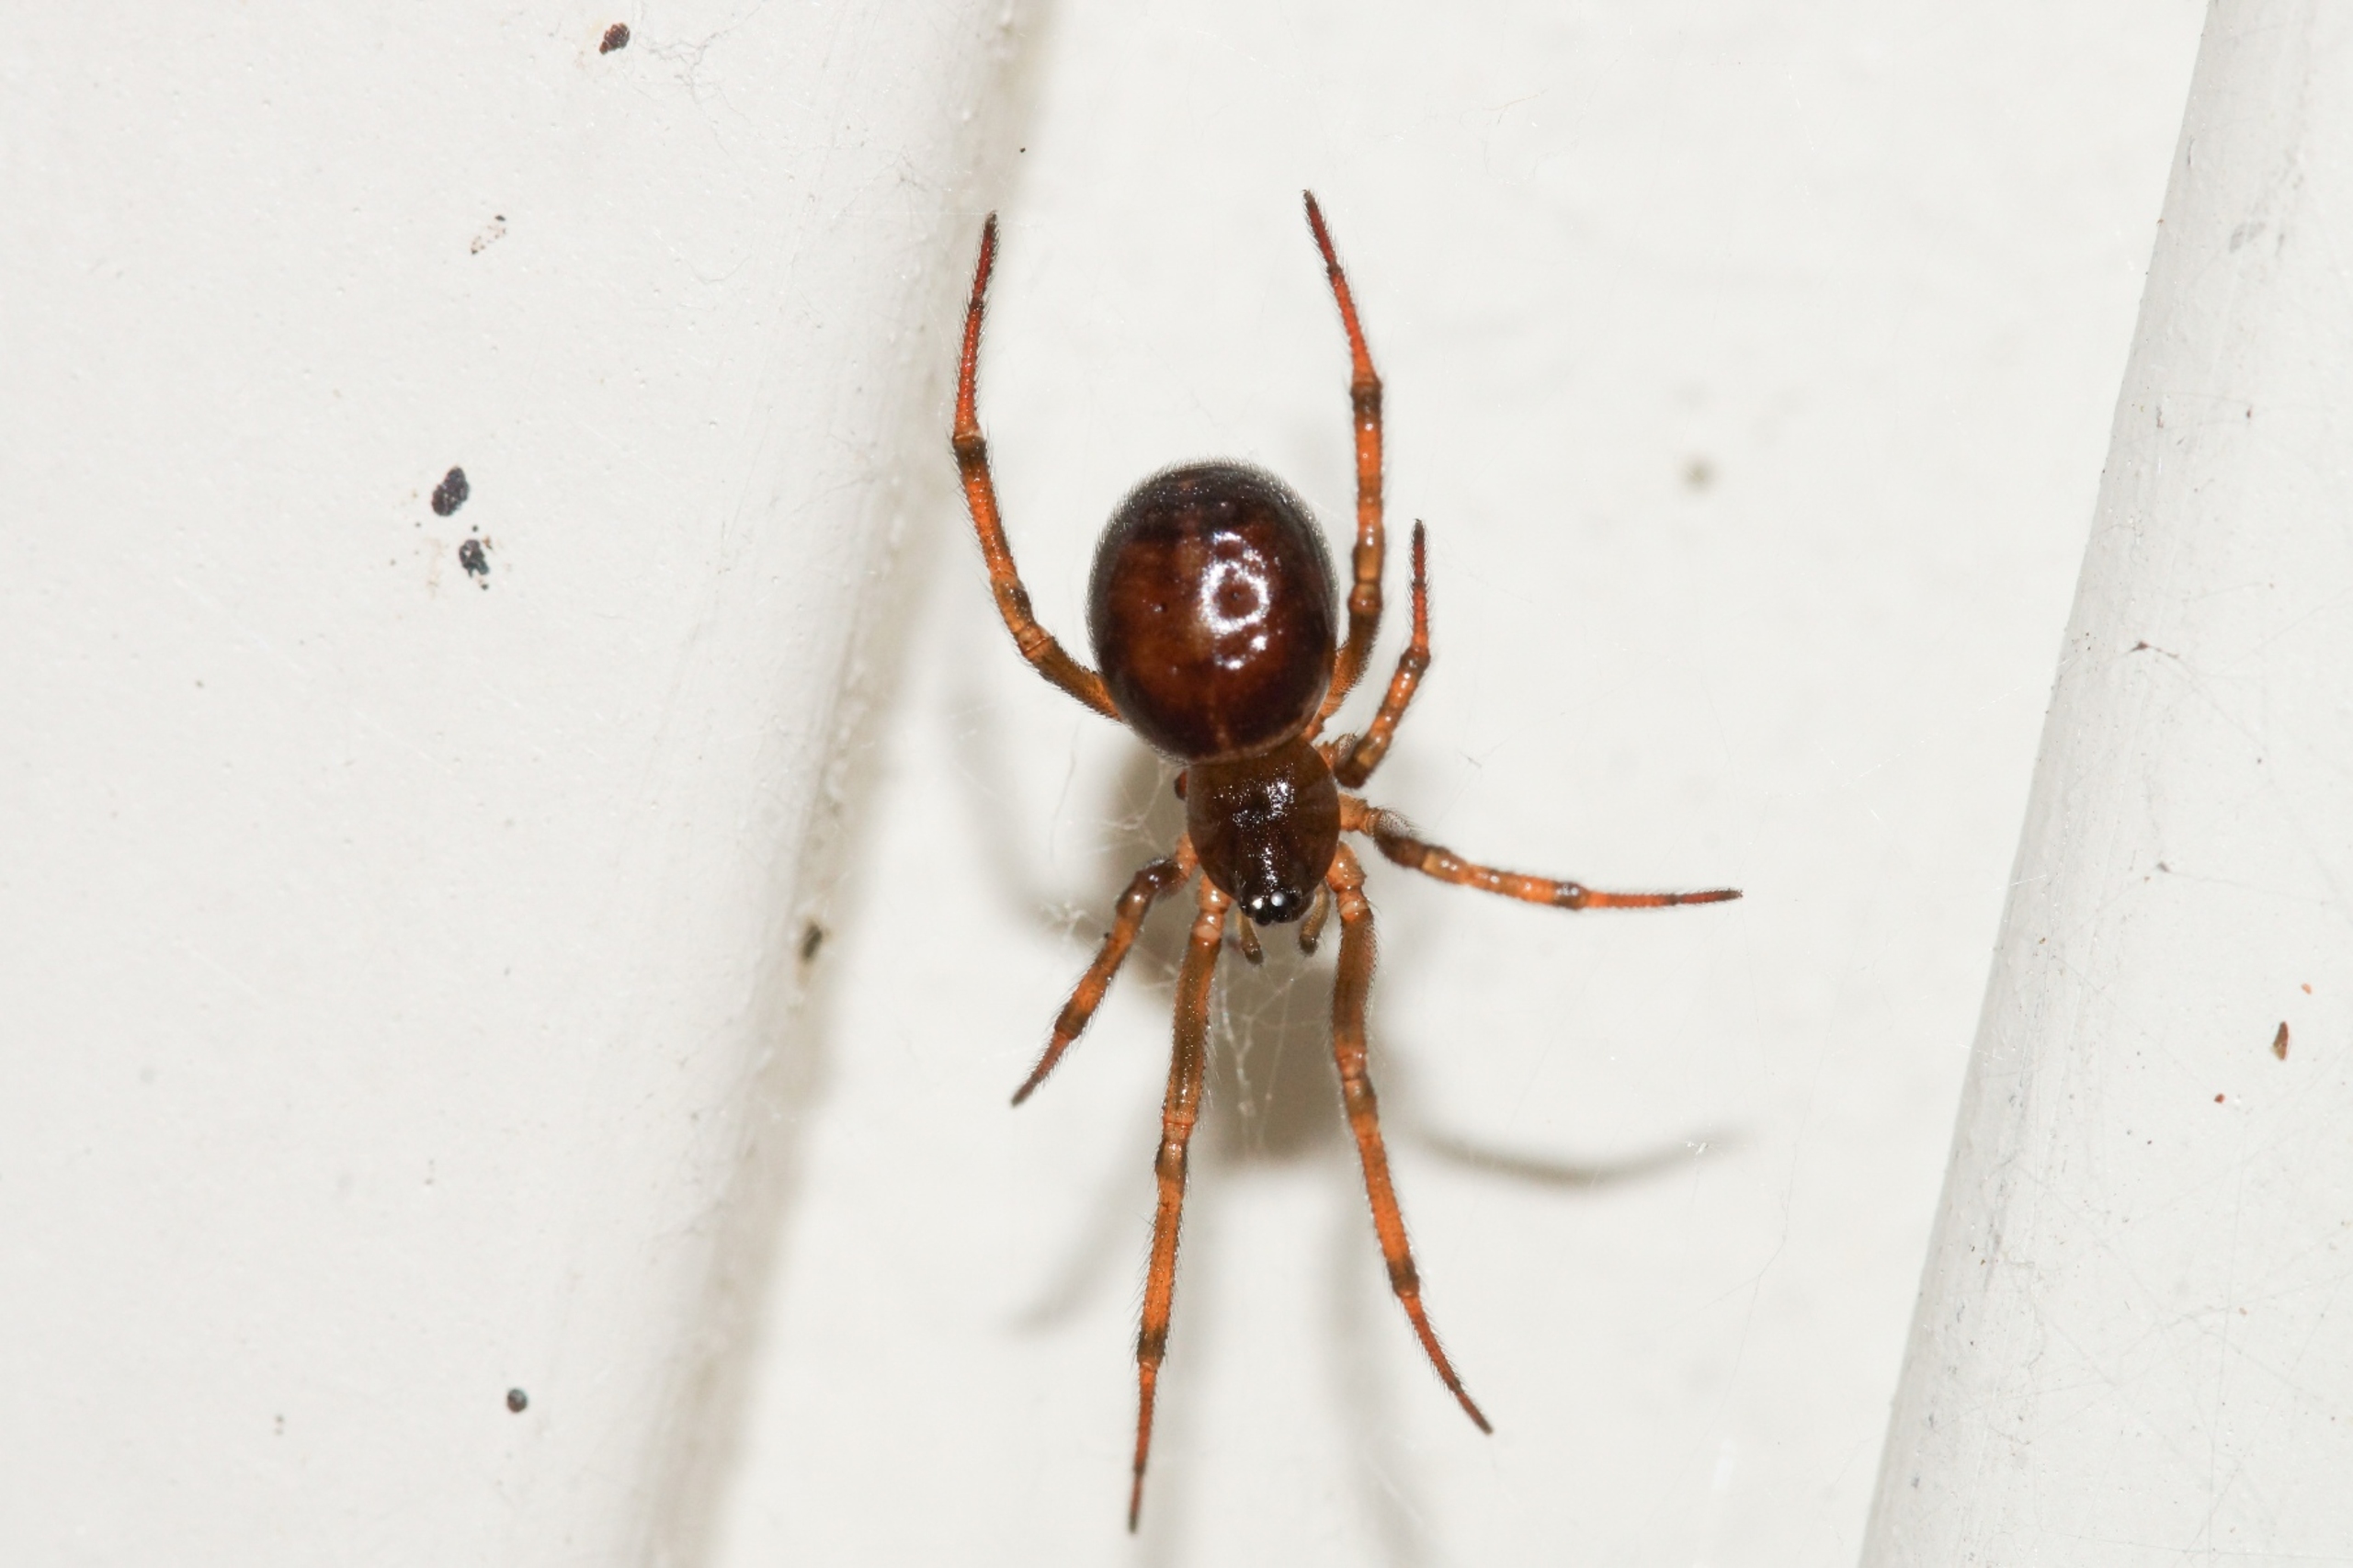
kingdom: Animalia
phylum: Arthropoda
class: Arachnida
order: Araneae
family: Theridiidae
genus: Steatoda
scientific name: Steatoda bipunctata
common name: Fedtedderkop
